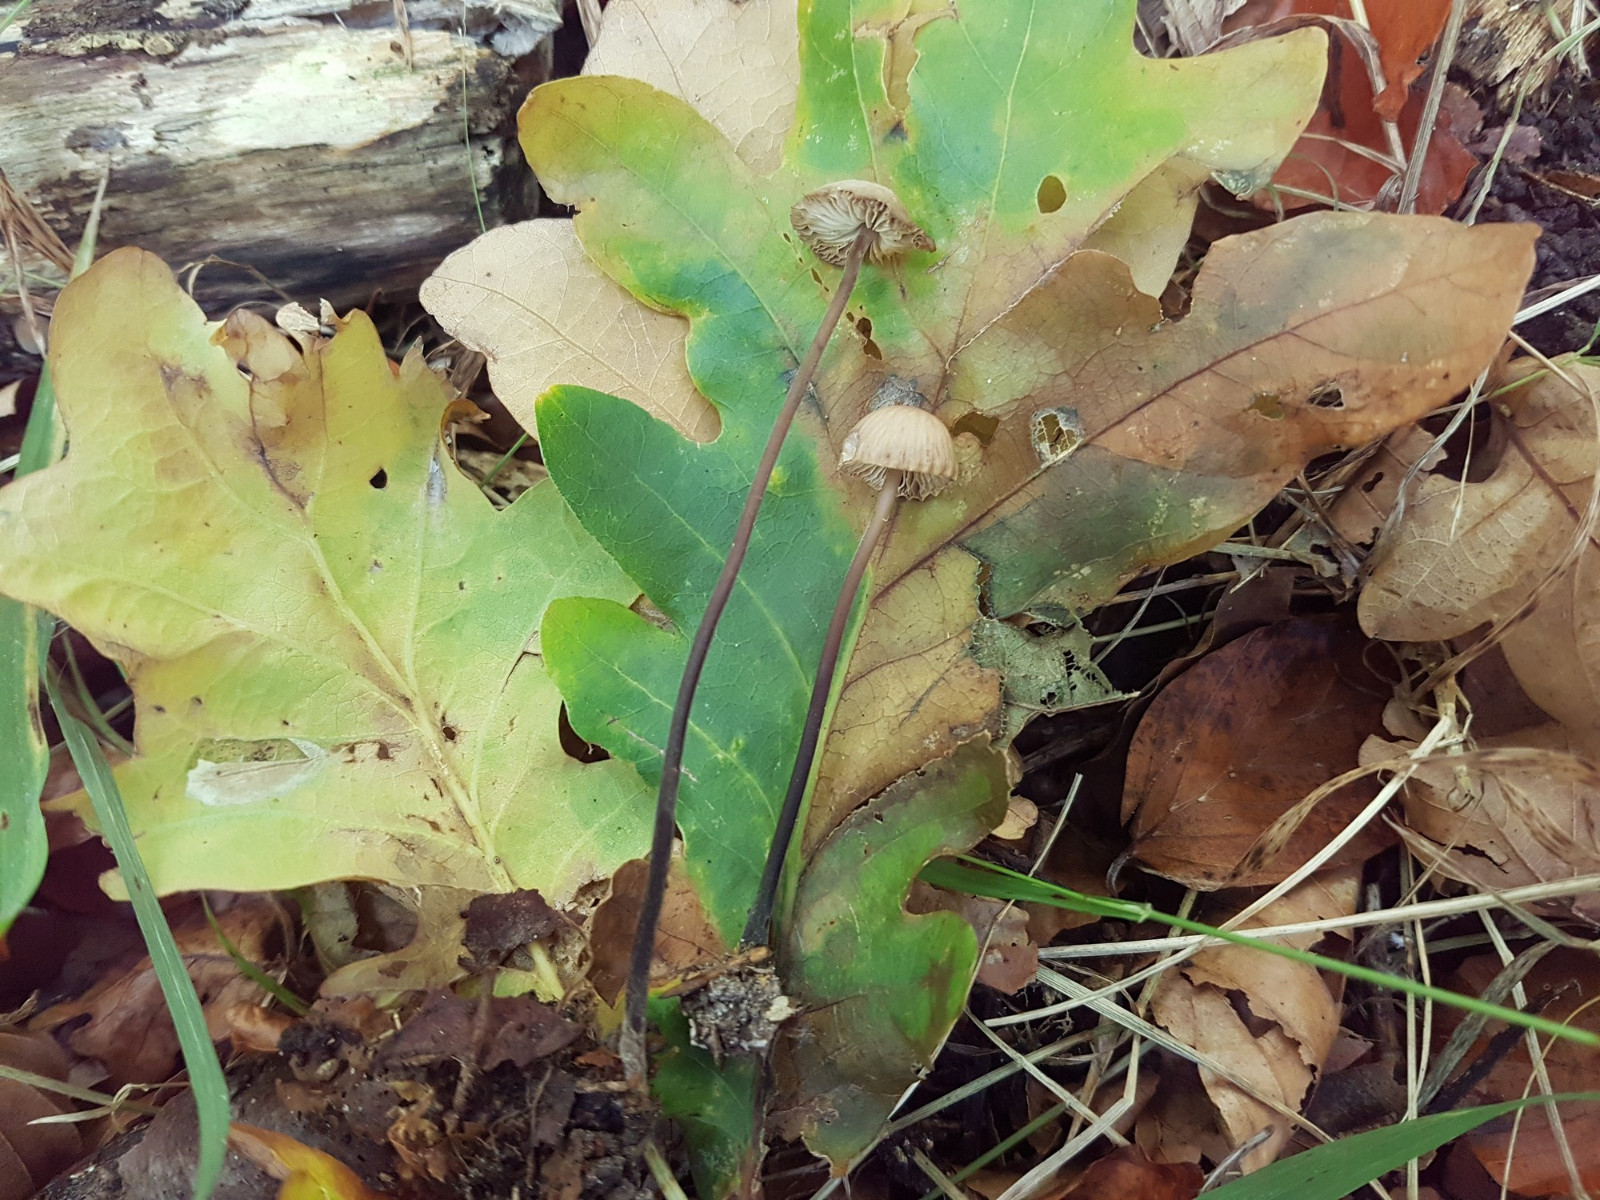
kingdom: Fungi
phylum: Basidiomycota
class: Agaricomycetes
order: Agaricales
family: Omphalotaceae
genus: Mycetinis
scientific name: Mycetinis alliaceus
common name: stor løghat
